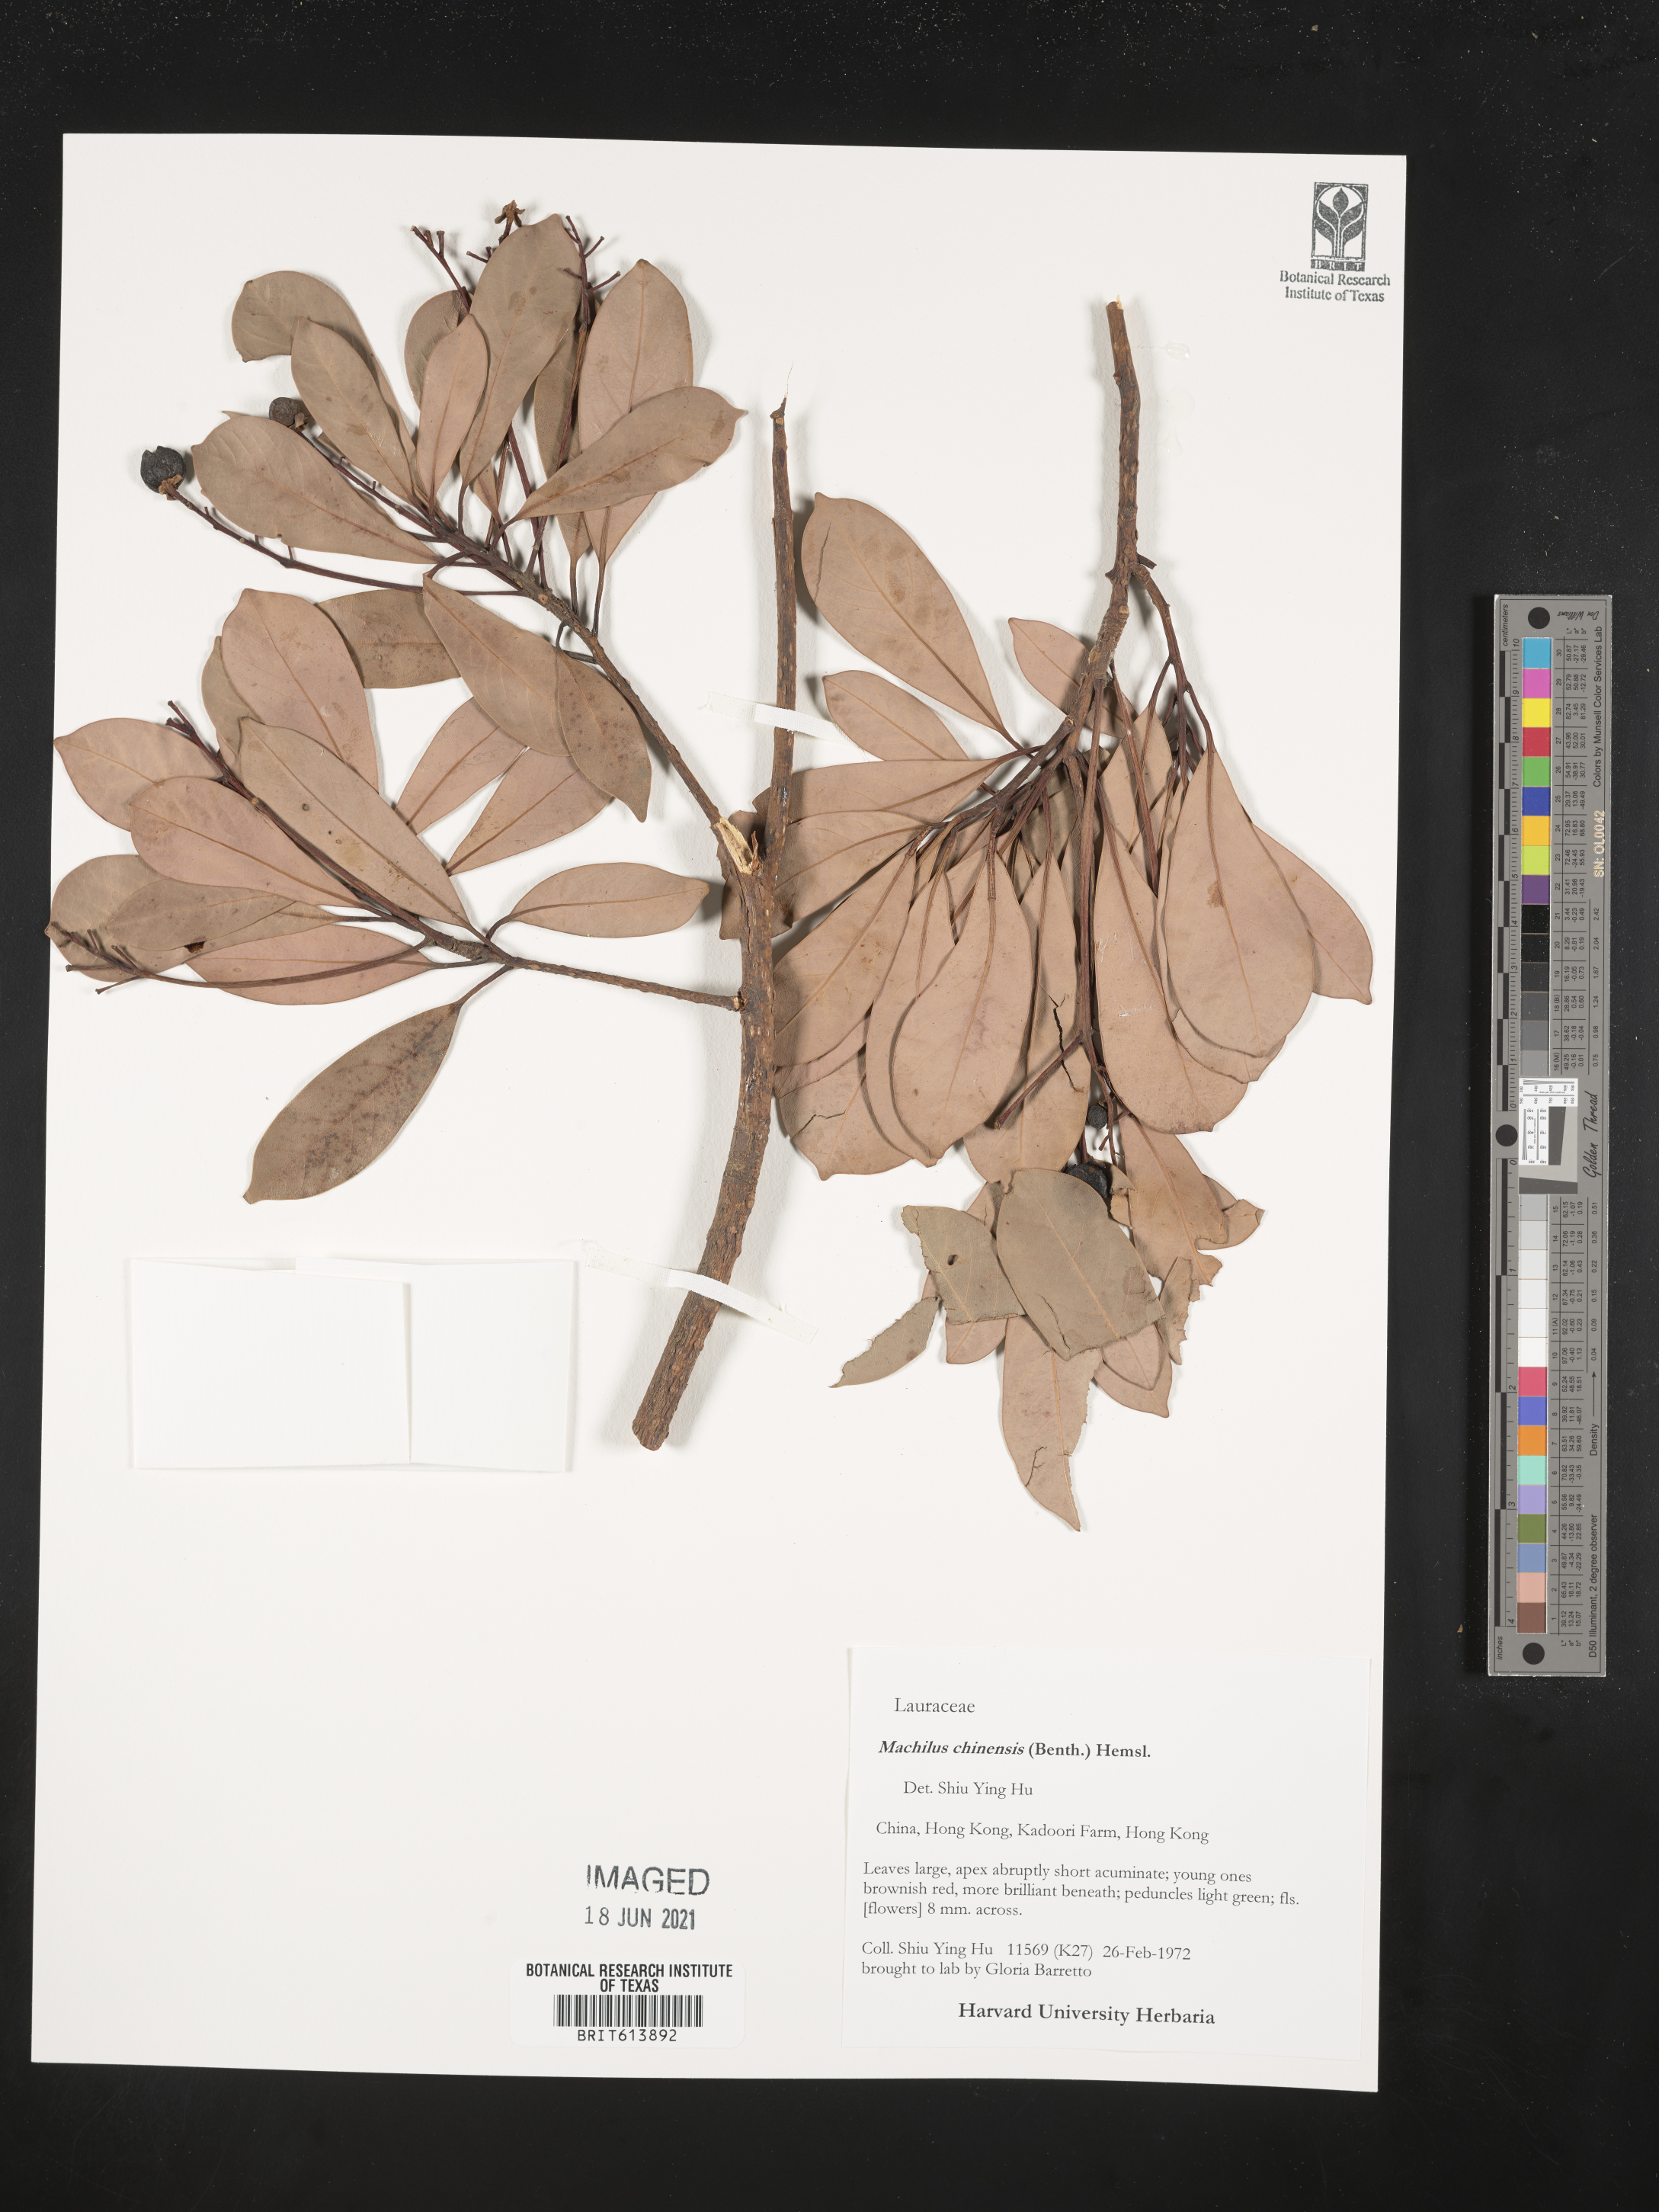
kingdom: Plantae
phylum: Tracheophyta
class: Magnoliopsida
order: Laurales
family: Lauraceae
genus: Machilus
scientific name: Machilus chinensis
